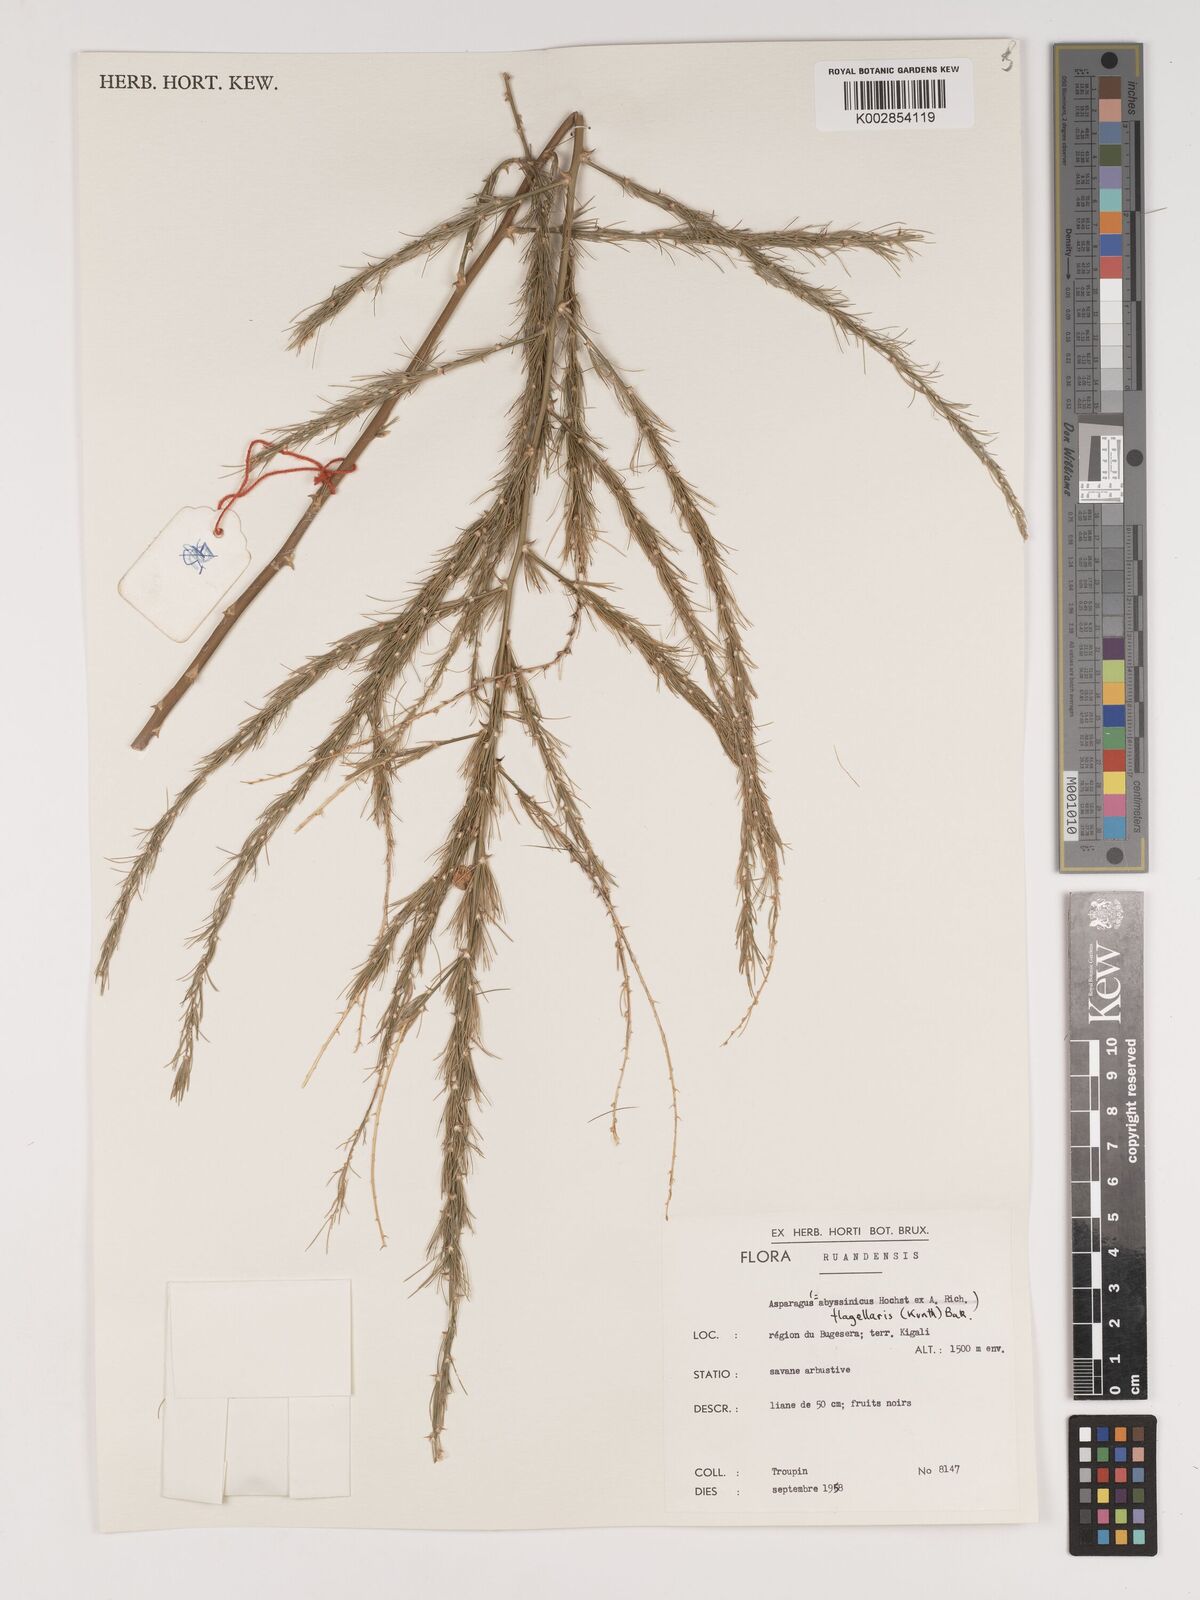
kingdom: Plantae
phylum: Tracheophyta
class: Liliopsida
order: Asparagales
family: Asparagaceae
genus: Asparagus
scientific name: Asparagus flagellaris
